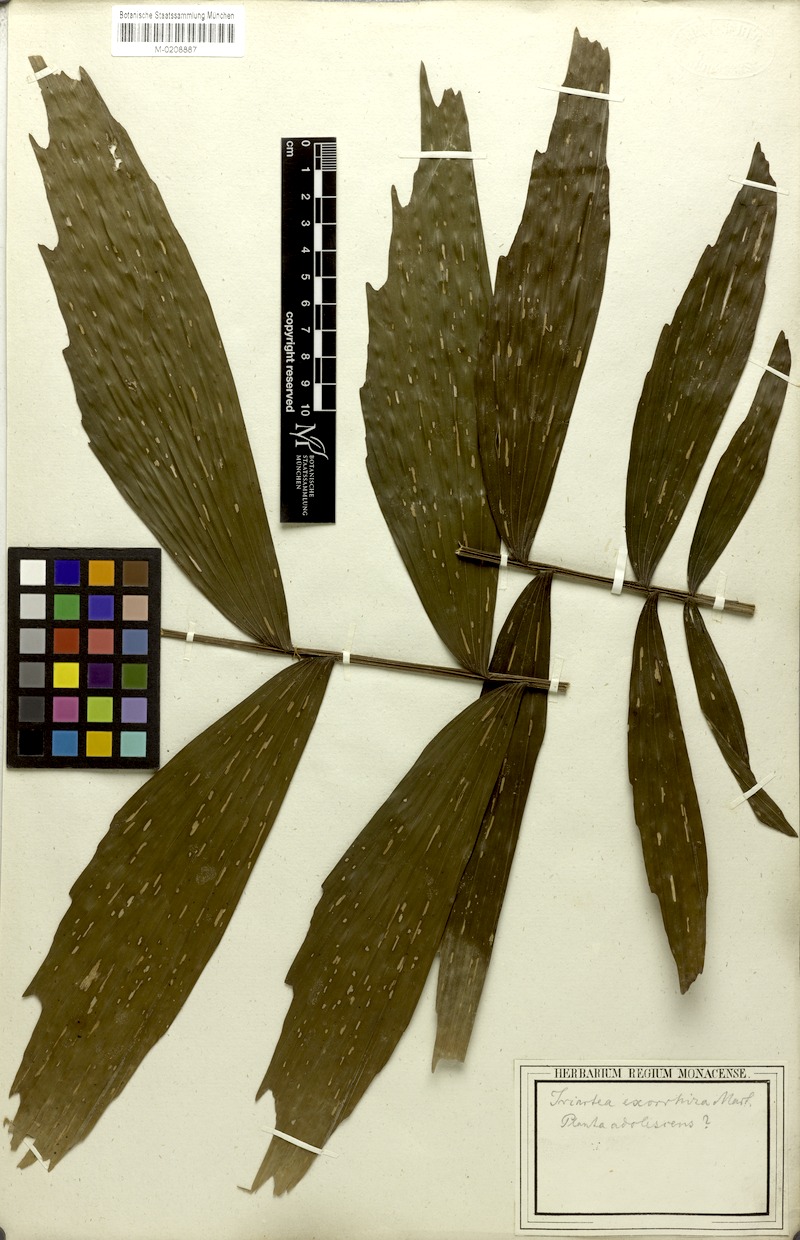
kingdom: Plantae
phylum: Tracheophyta
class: Liliopsida
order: Arecales
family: Arecaceae
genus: Socratea
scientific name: Socratea exorrhiza
